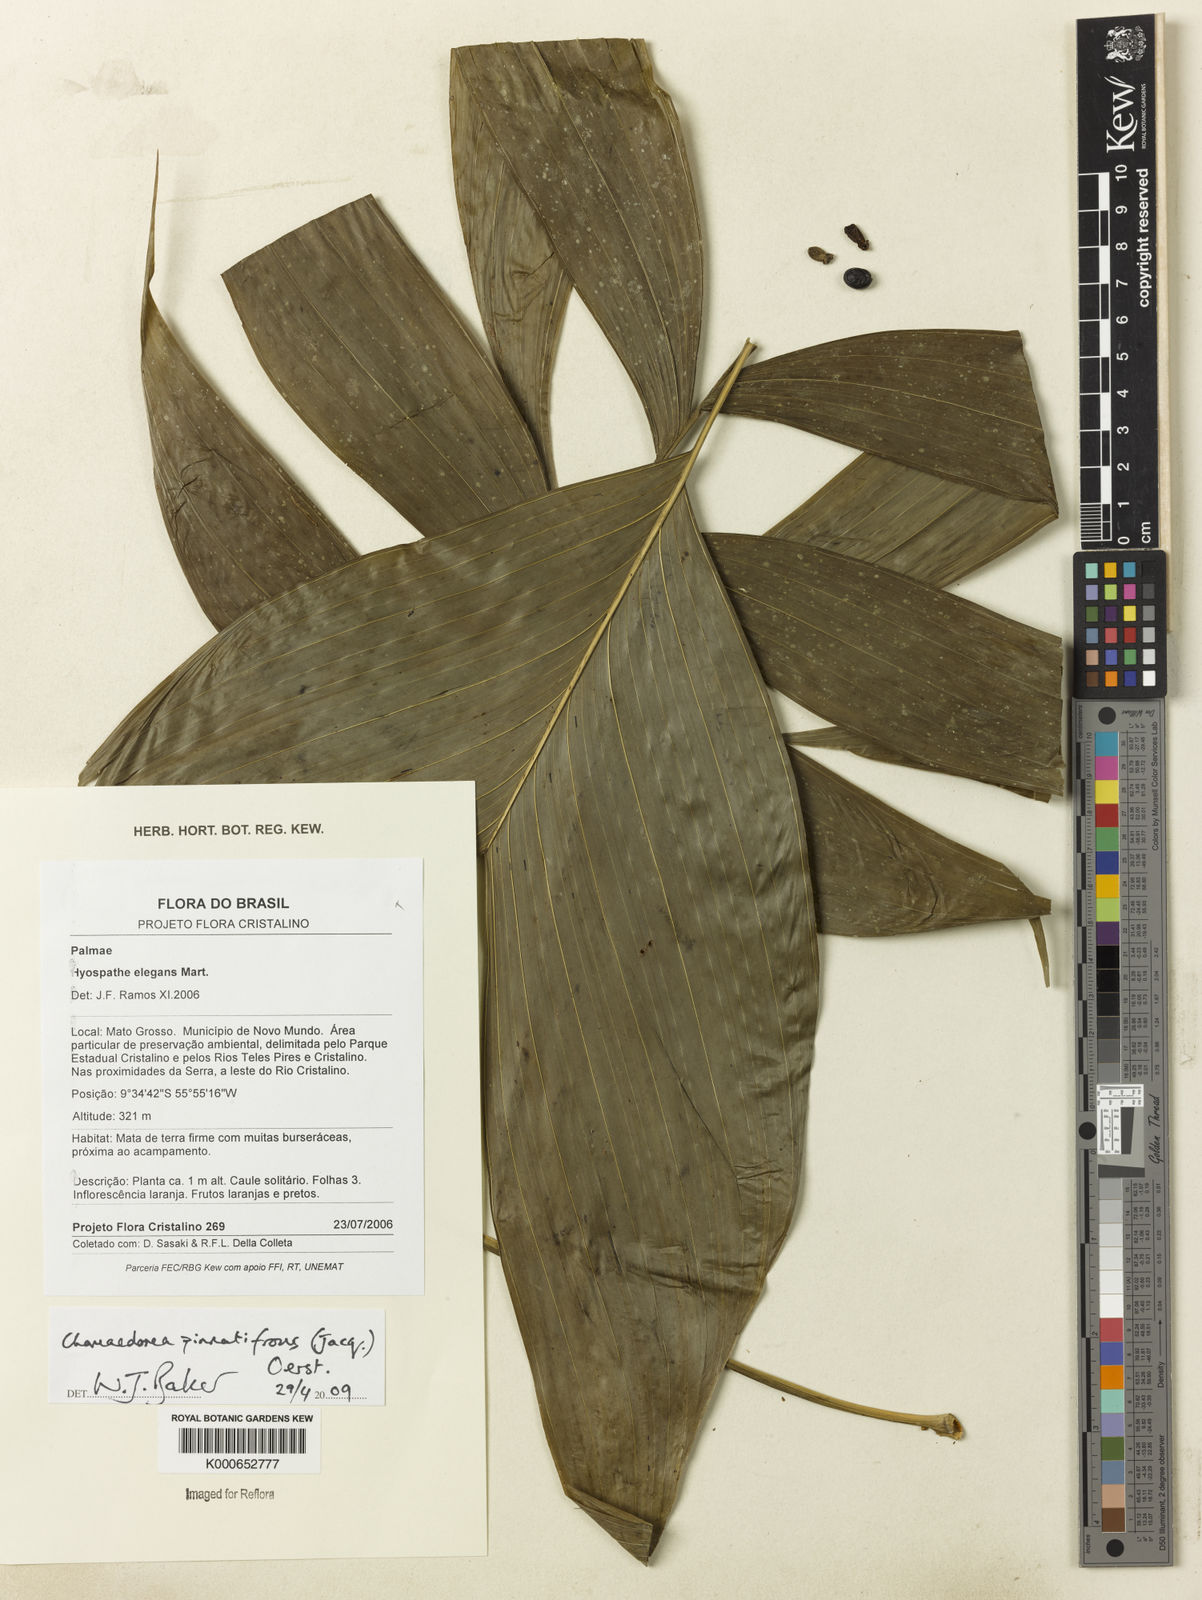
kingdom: Plantae
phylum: Tracheophyta
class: Liliopsida
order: Arecales
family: Arecaceae
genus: Chamaedorea
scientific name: Chamaedorea pinnatifrons
